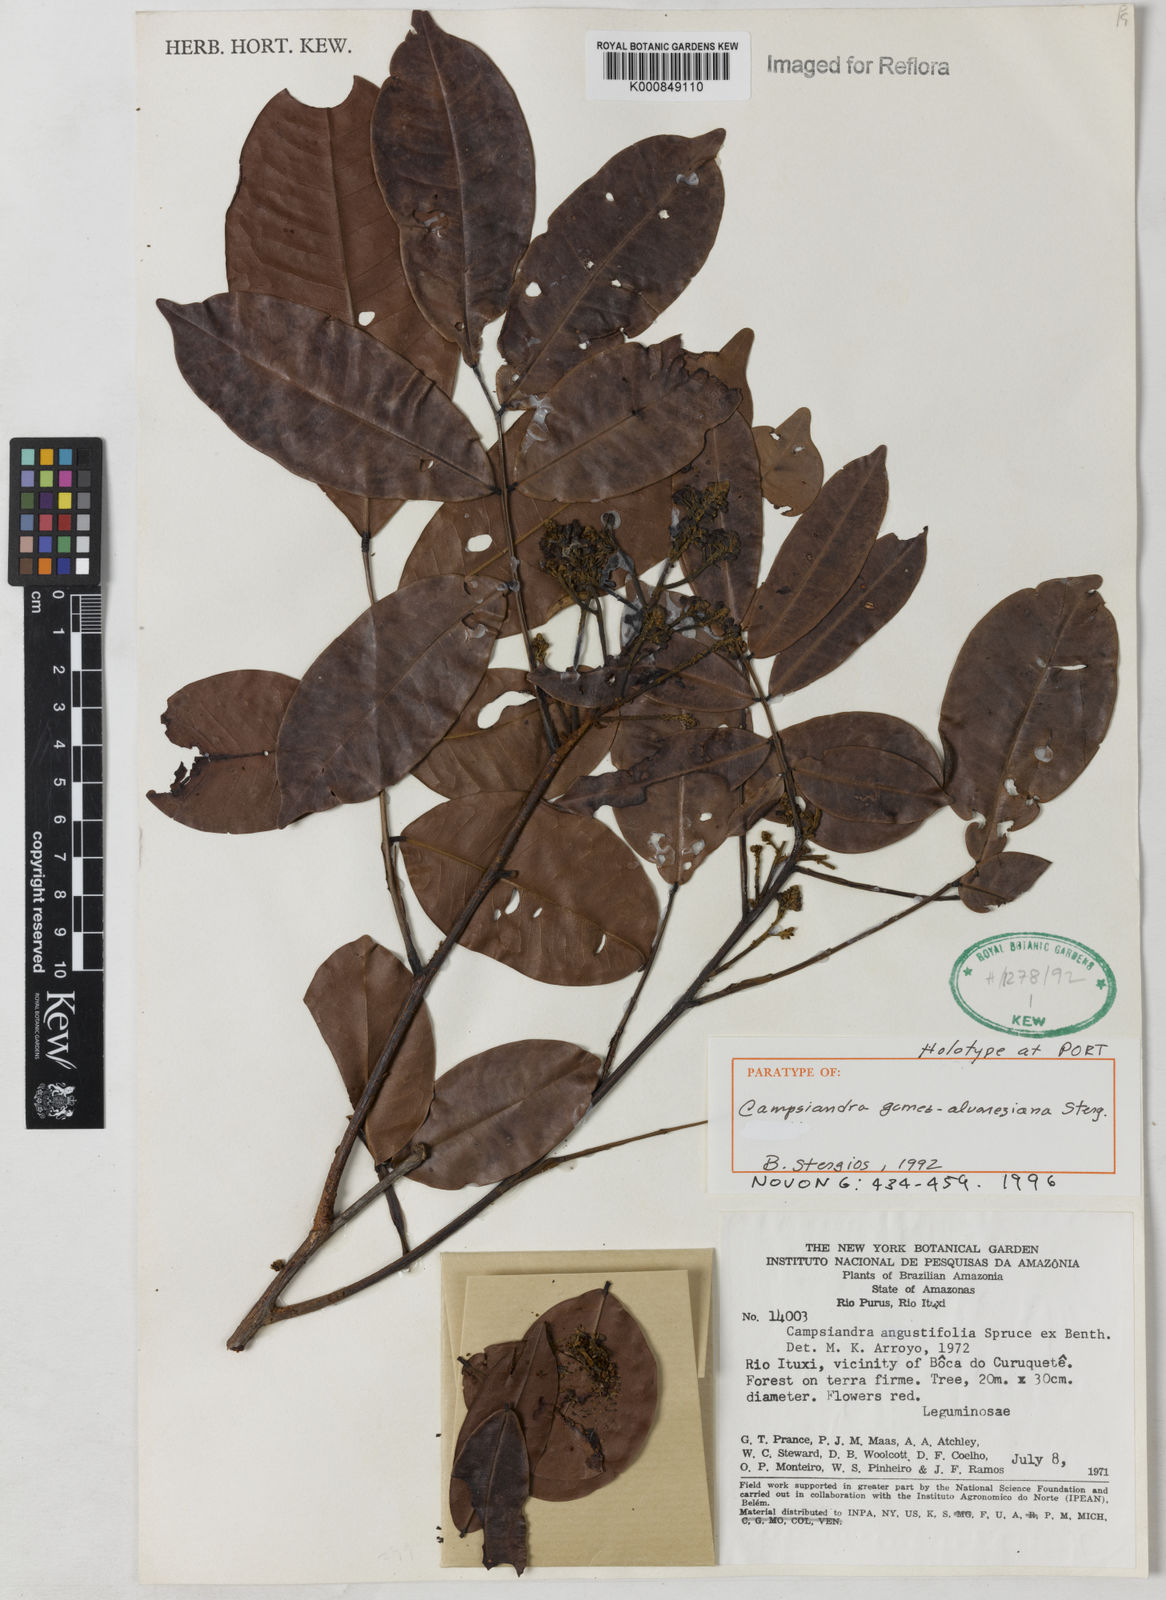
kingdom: Plantae
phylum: Tracheophyta
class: Magnoliopsida
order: Fabales
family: Fabaceae
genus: Campsiandra
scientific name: Campsiandra
